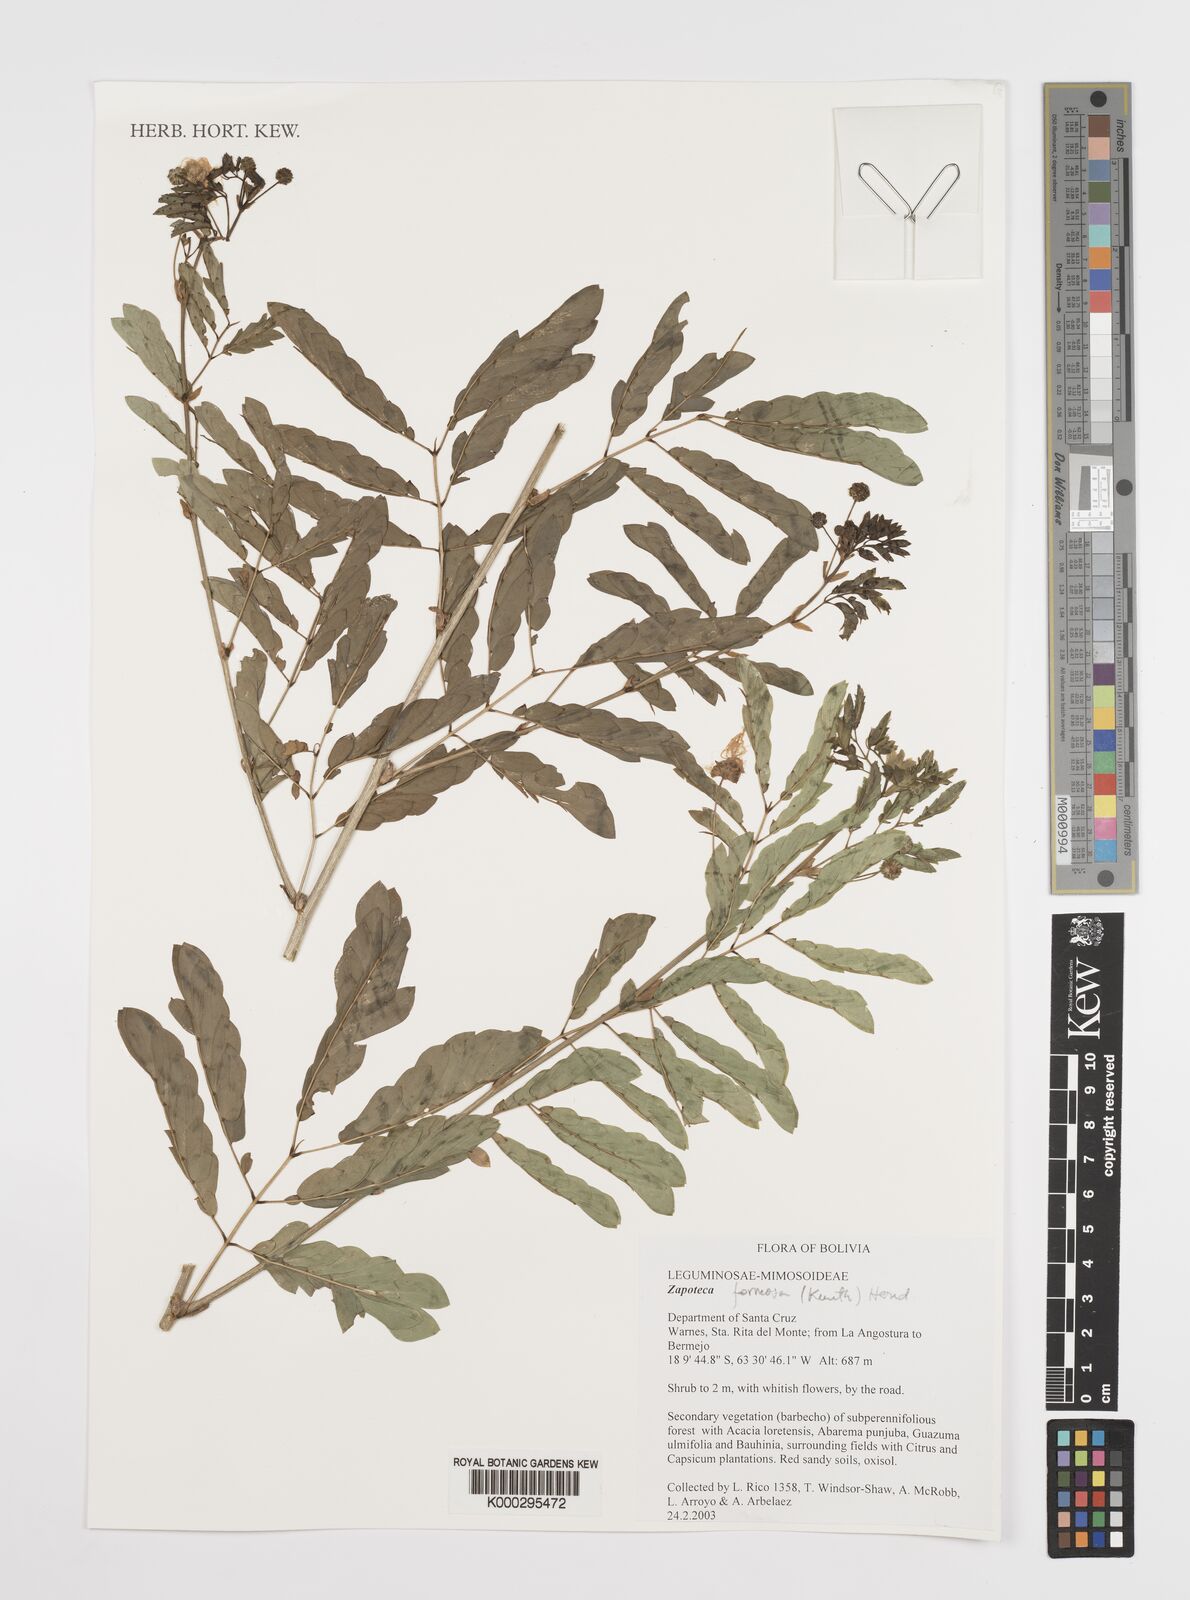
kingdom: Plantae
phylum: Tracheophyta
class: Magnoliopsida
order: Fabales
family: Fabaceae
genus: Zapoteca
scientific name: Zapoteca formosa
